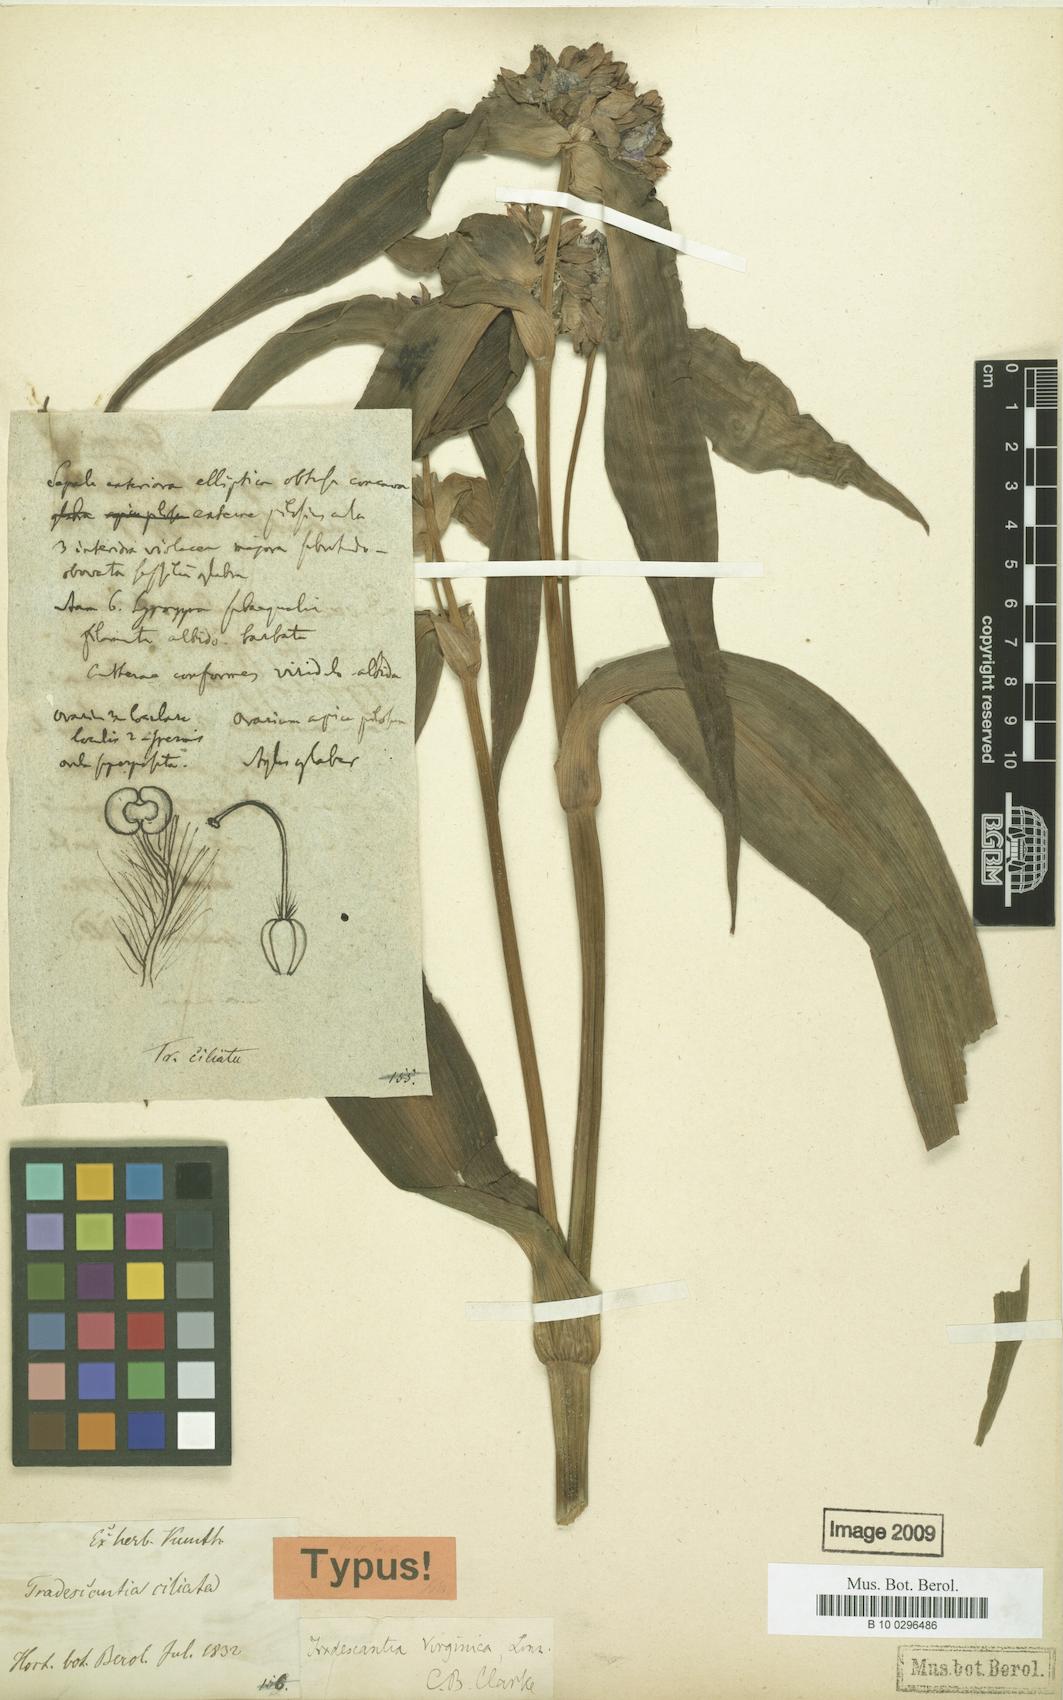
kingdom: Plantae
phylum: Tracheophyta
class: Liliopsida
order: Commelinales
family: Commelinaceae
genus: Tradescantia
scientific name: Tradescantia virginiana
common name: Spiderwort
